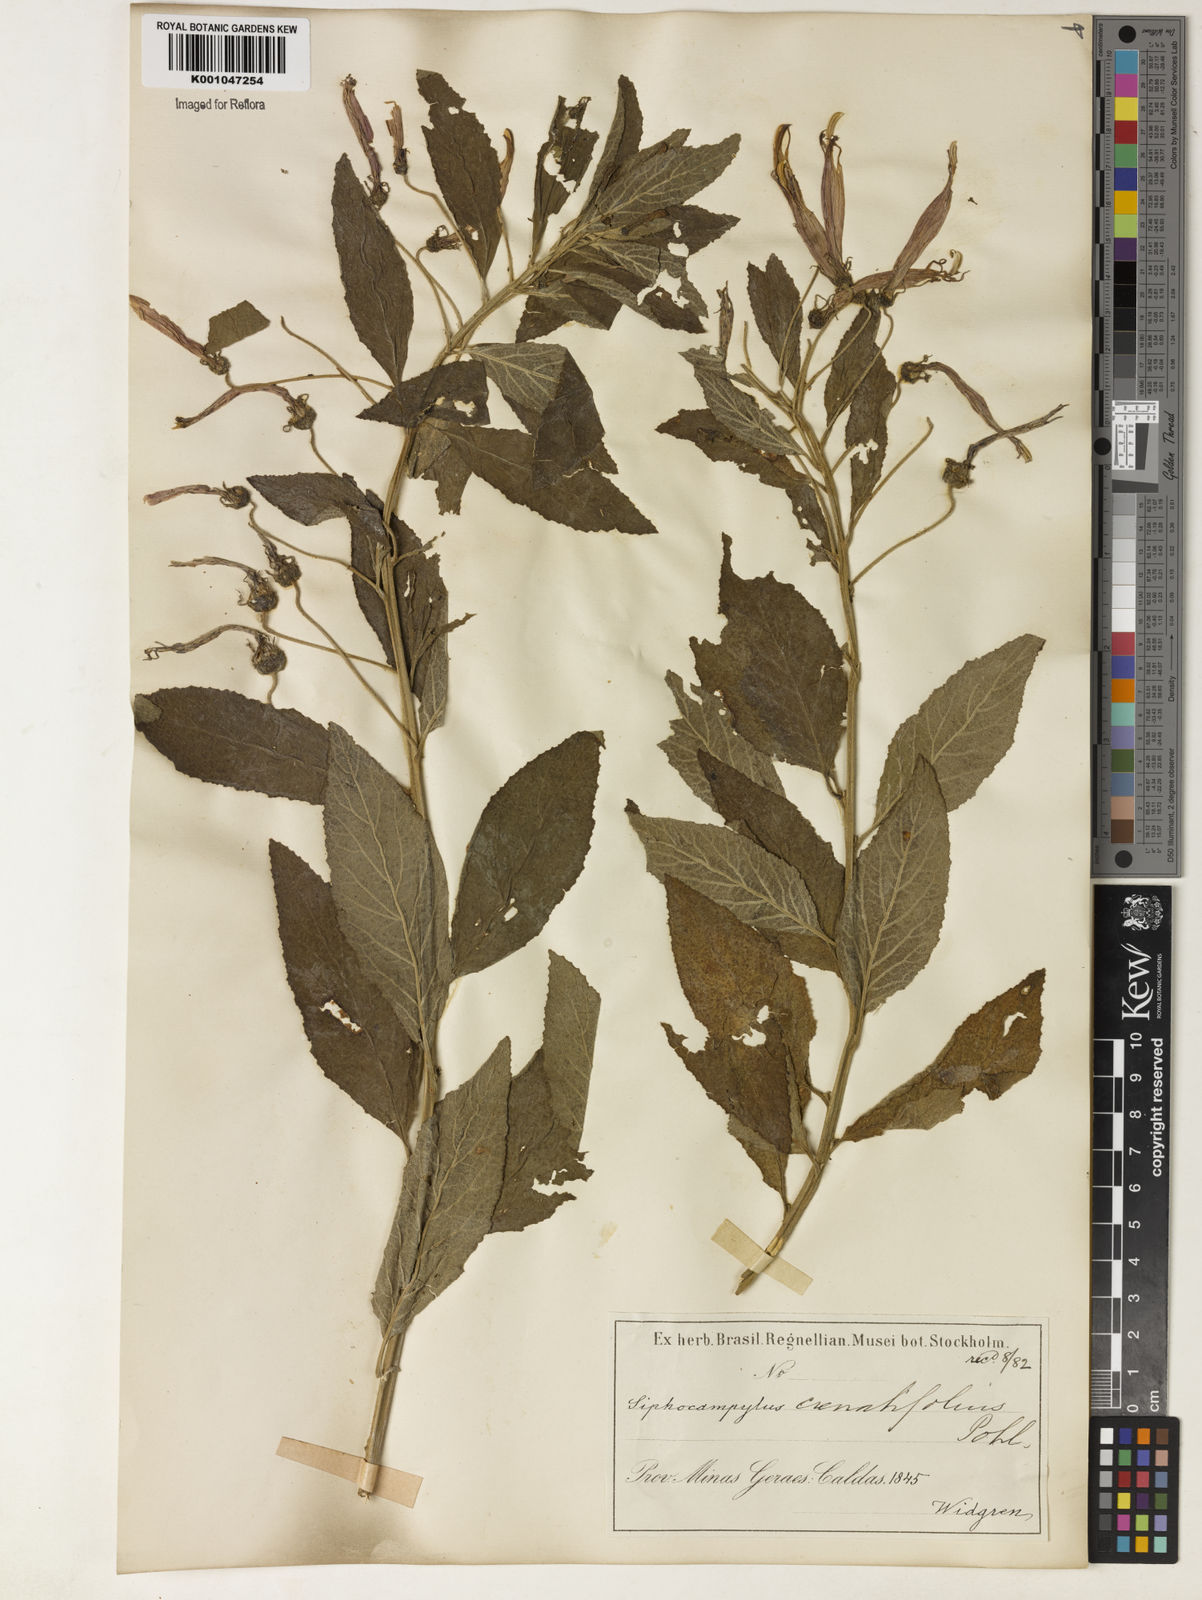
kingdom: Plantae
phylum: Tracheophyta
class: Magnoliopsida
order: Asterales
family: Campanulaceae
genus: Siphocampylus
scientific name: Siphocampylus macropodus
